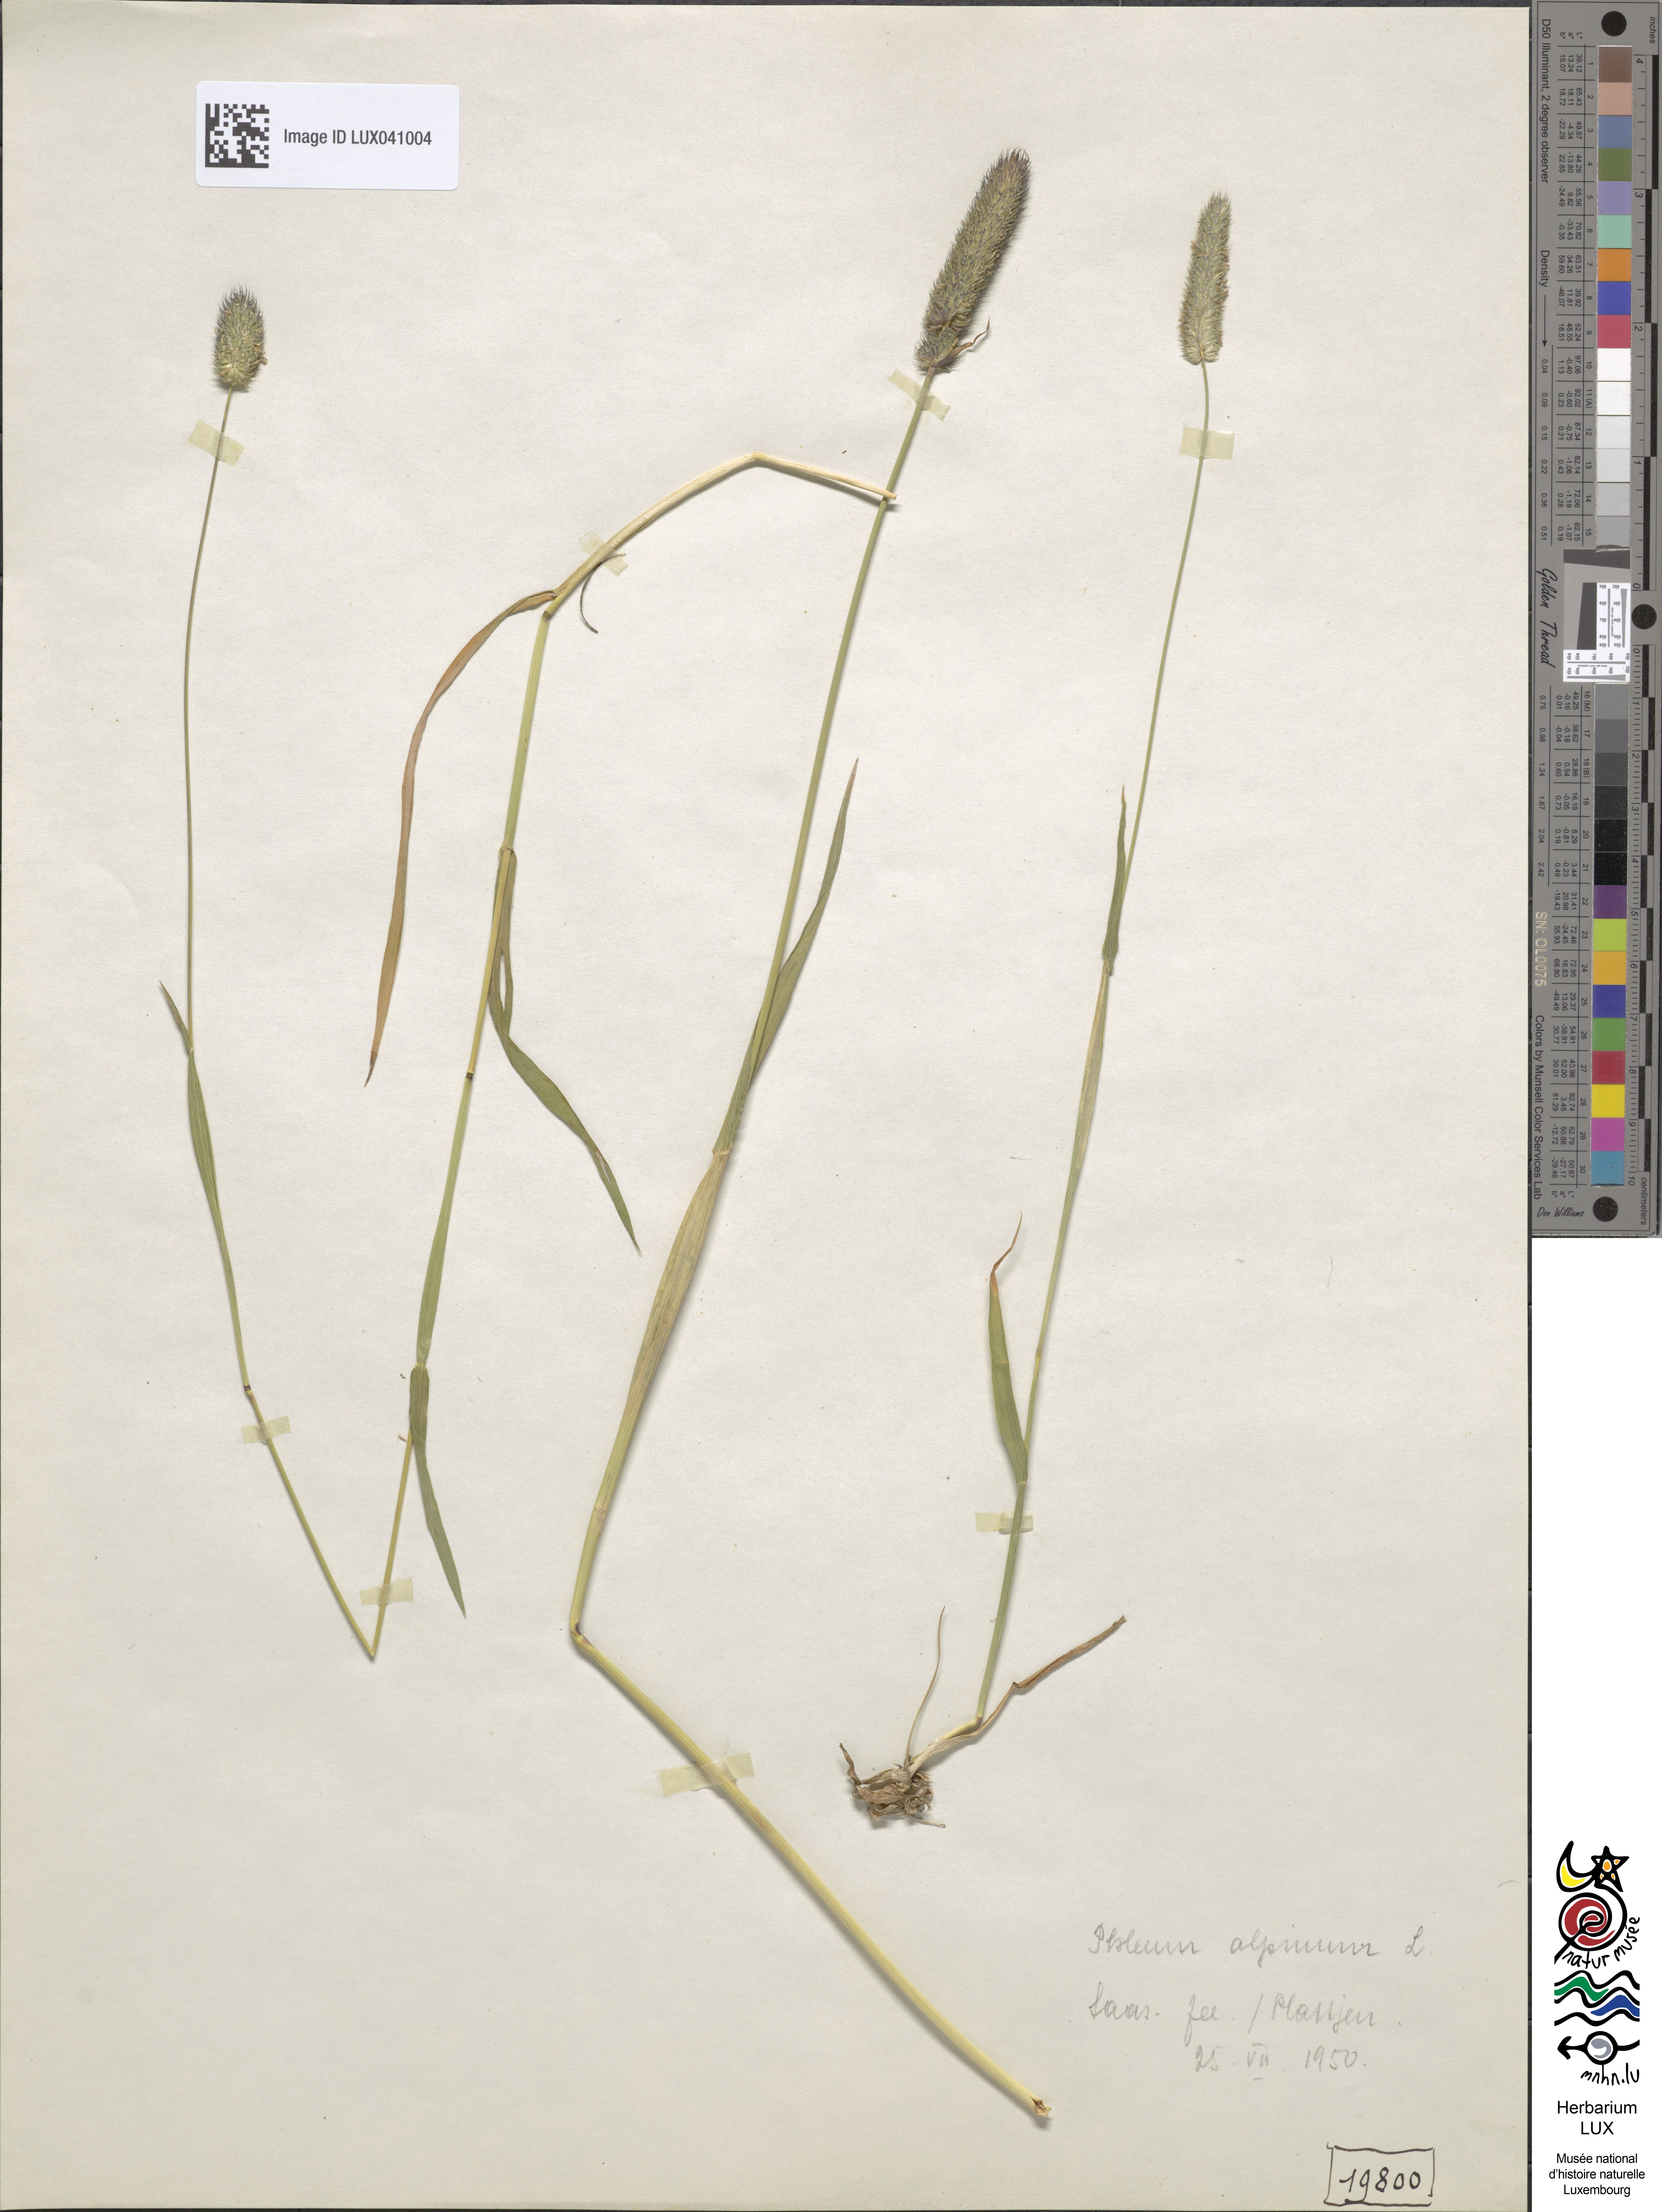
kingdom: Plantae
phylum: Tracheophyta
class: Liliopsida
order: Poales
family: Poaceae
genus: Phleum
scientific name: Phleum alpinum
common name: Alpine cat's-tail
